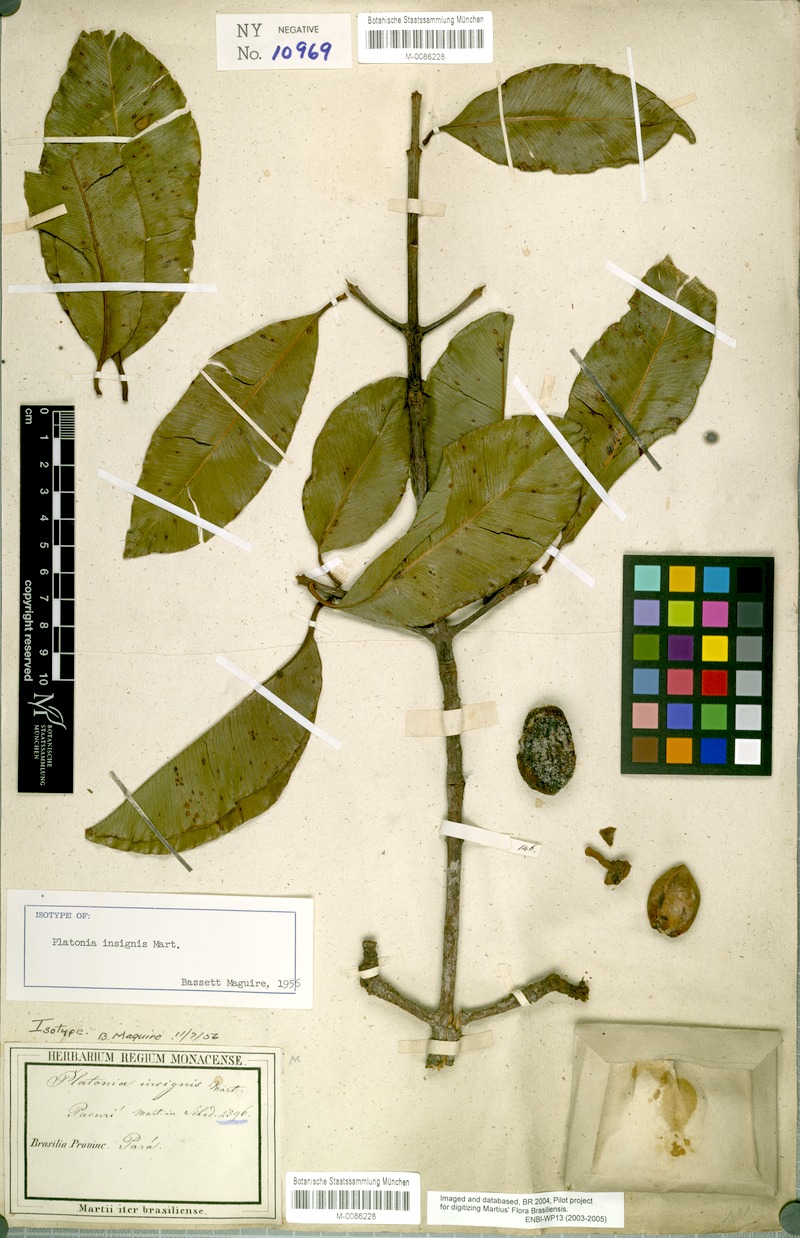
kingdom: Plantae
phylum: Tracheophyta
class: Magnoliopsida
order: Malpighiales
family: Clusiaceae
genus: Platonia
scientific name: Platonia insignis
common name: Bacury
